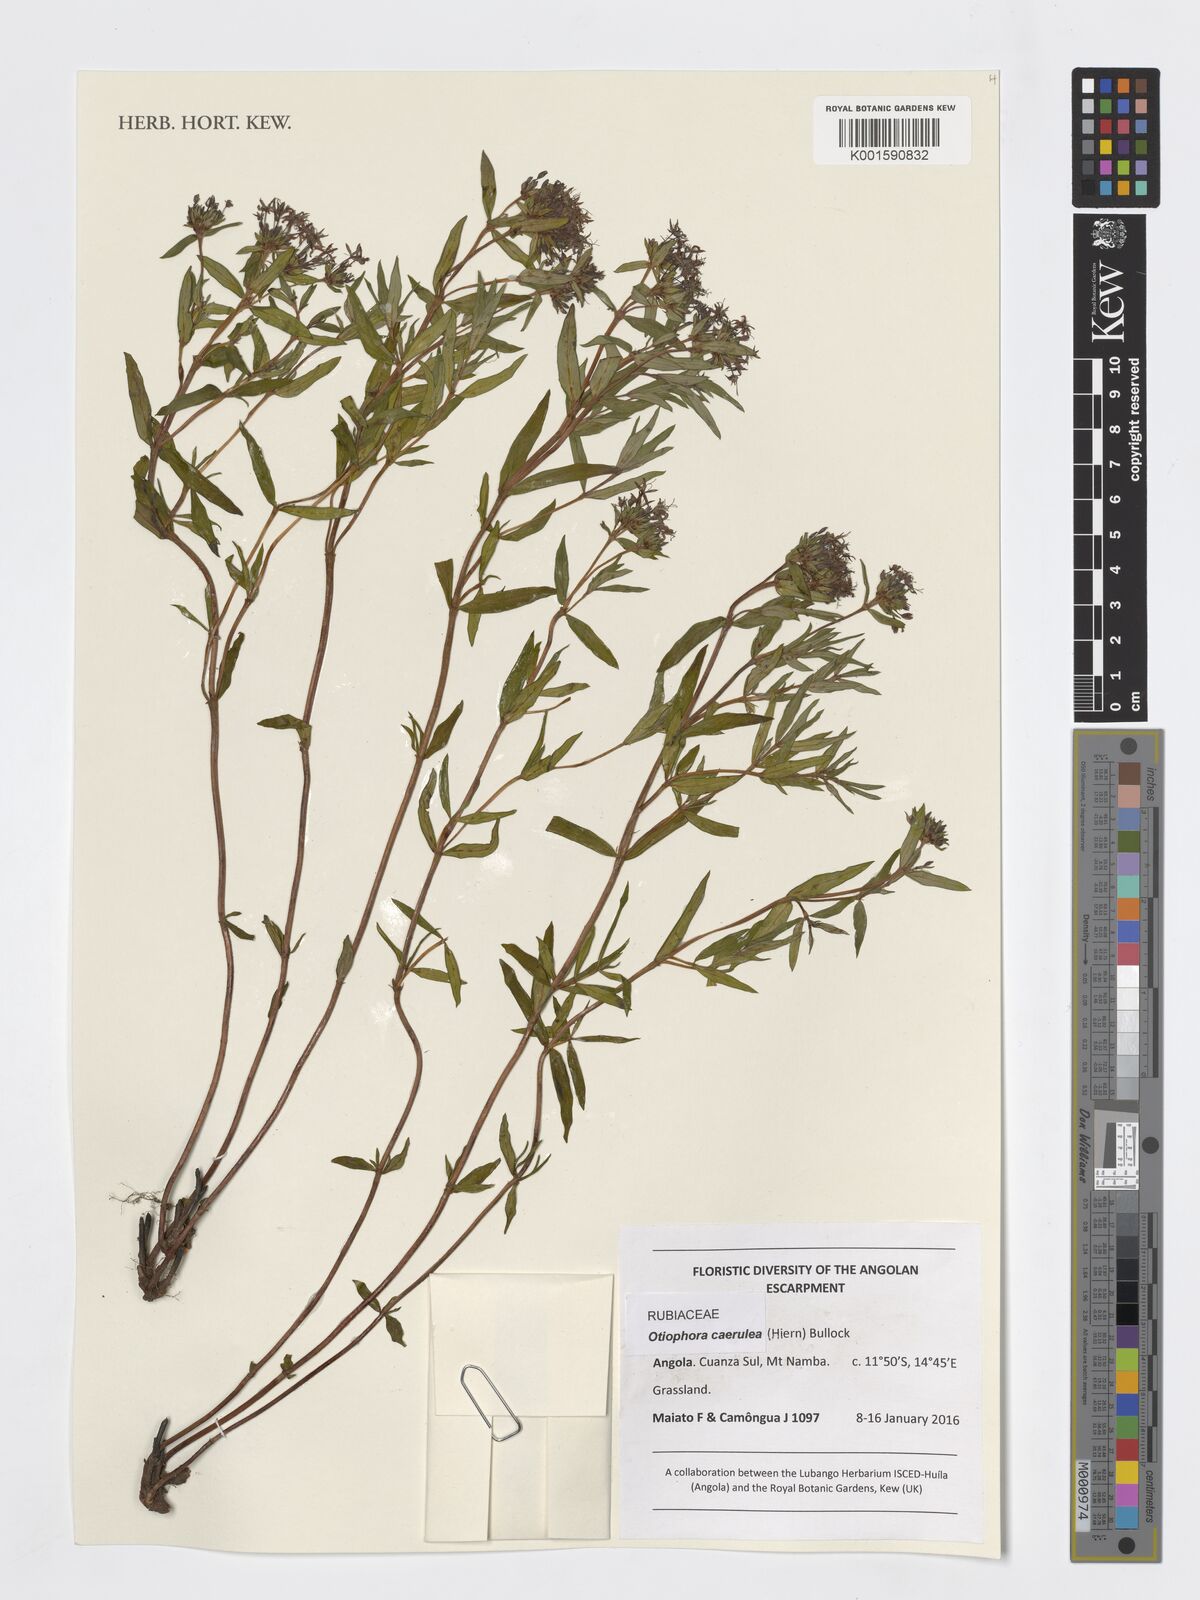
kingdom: Plantae
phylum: Tracheophyta
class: Magnoliopsida
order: Gentianales
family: Rubiaceae
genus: Otiophora
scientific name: Otiophora caerulea
